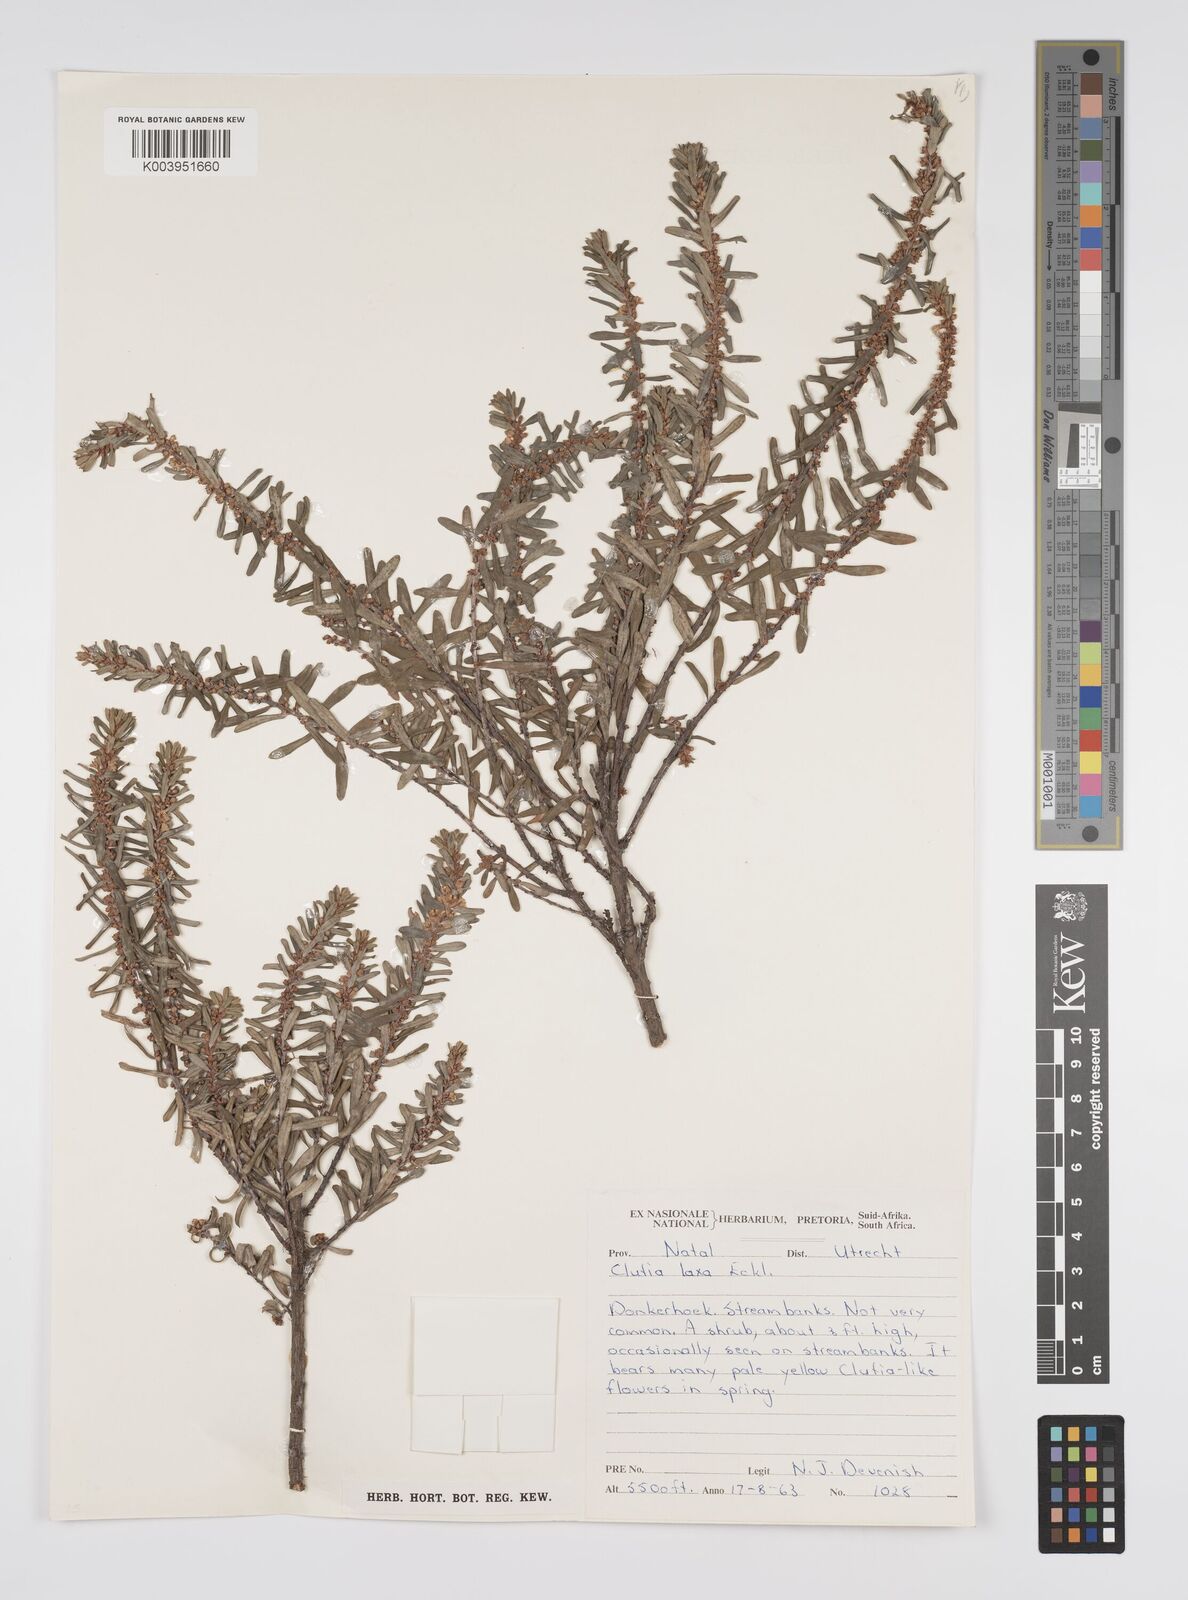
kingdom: Plantae
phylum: Tracheophyta
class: Magnoliopsida
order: Malpighiales
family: Peraceae
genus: Clutia
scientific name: Clutia laxa
